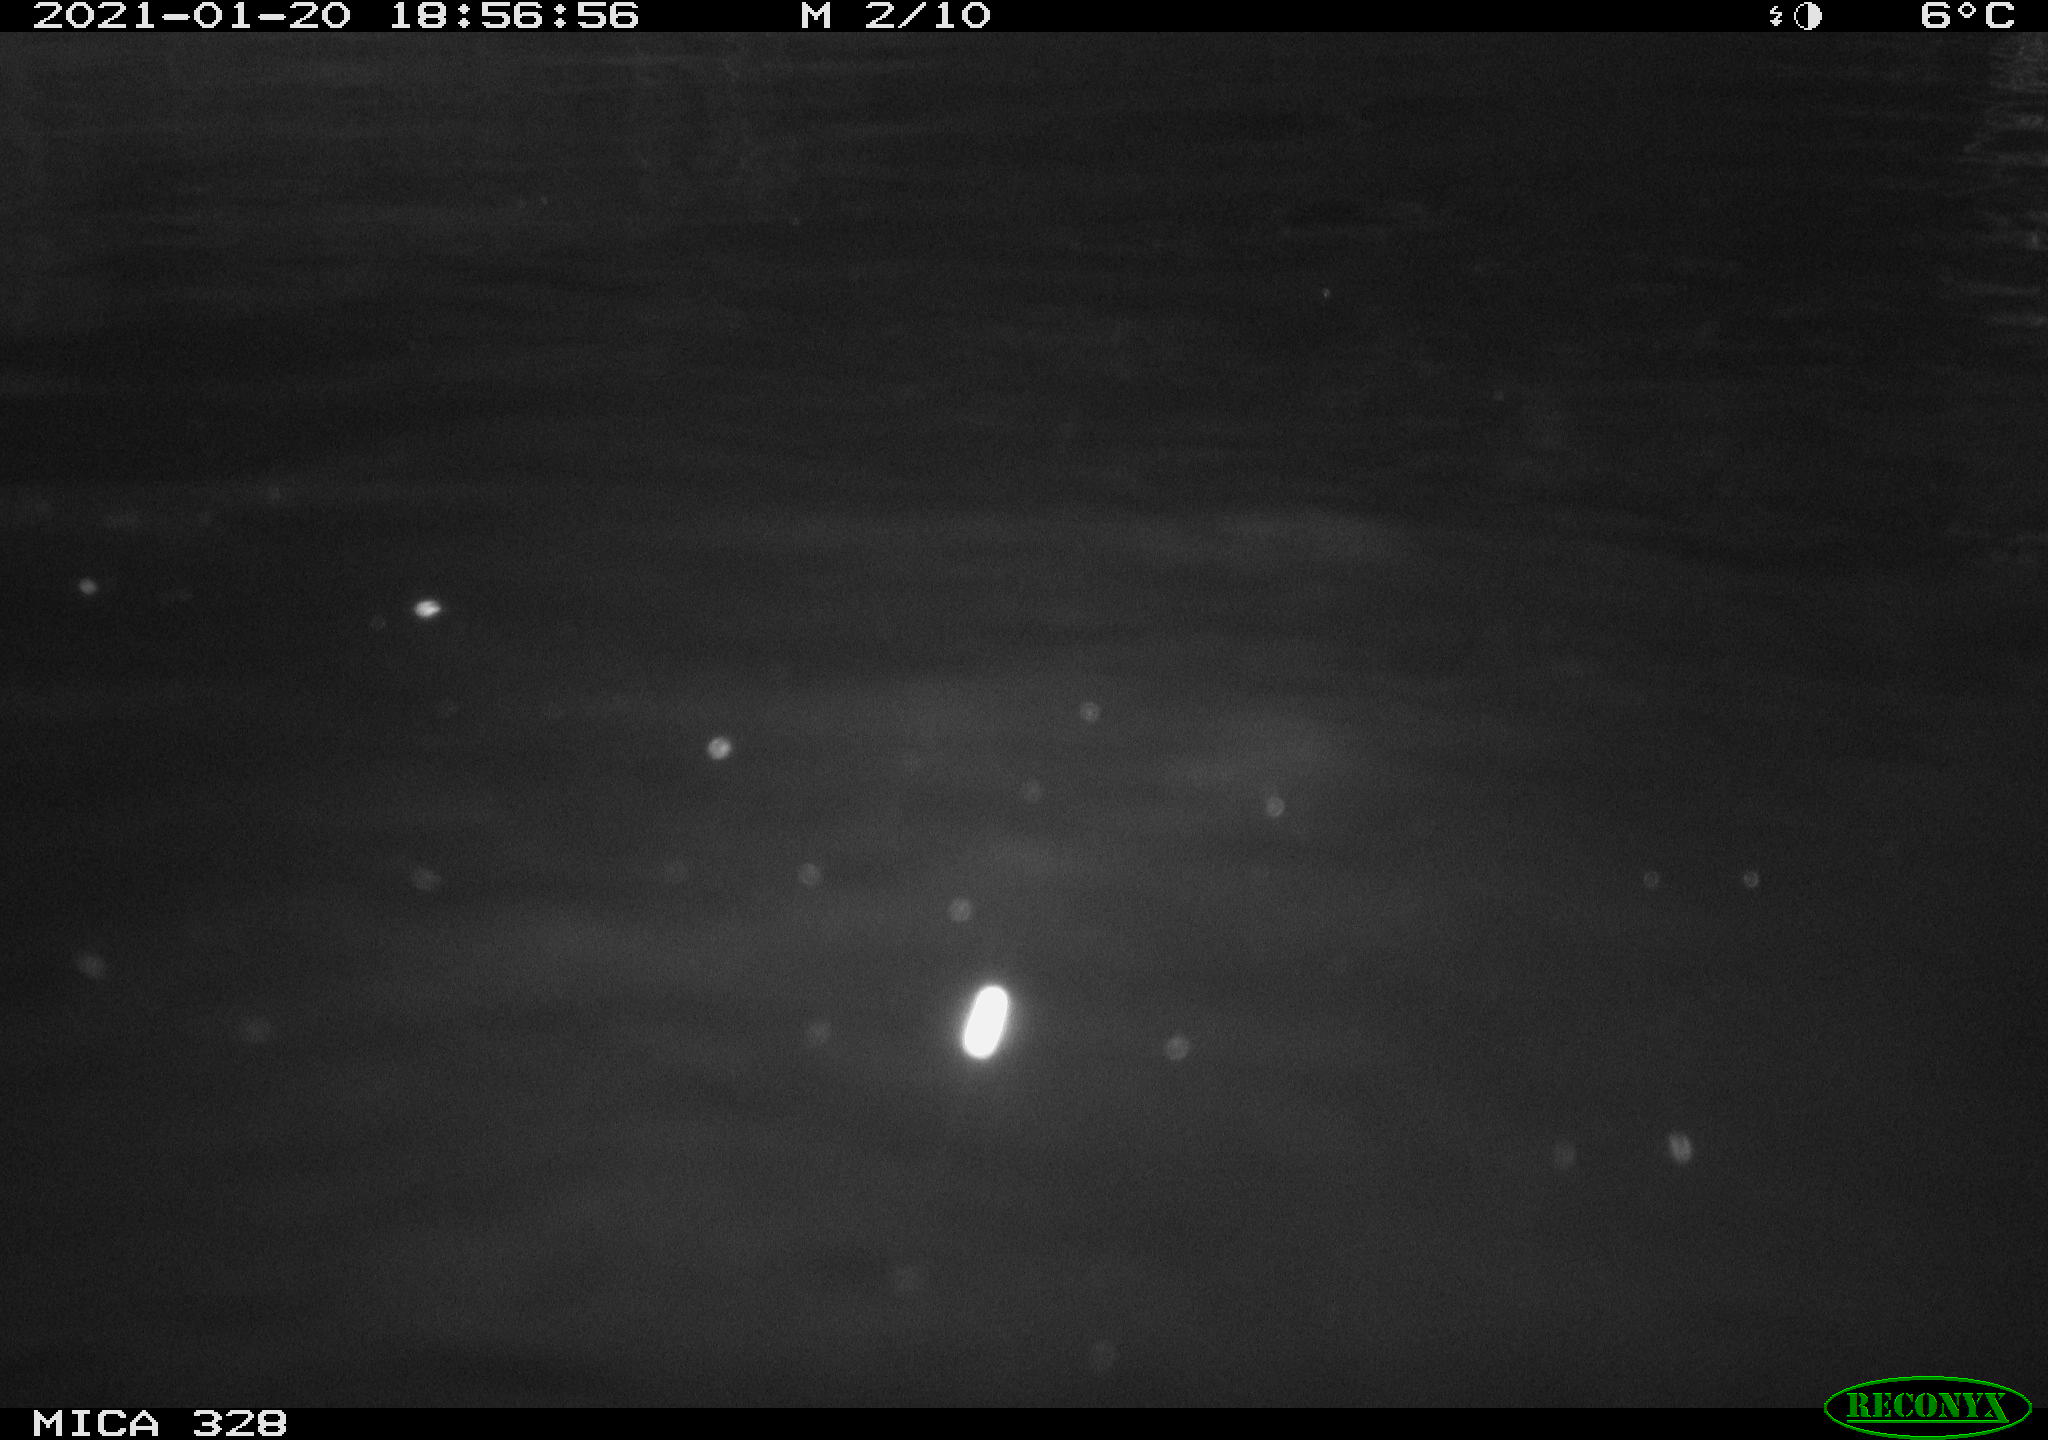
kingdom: Animalia
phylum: Chordata
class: Mammalia
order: Rodentia
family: Myocastoridae
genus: Myocastor
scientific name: Myocastor coypus
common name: Coypu
